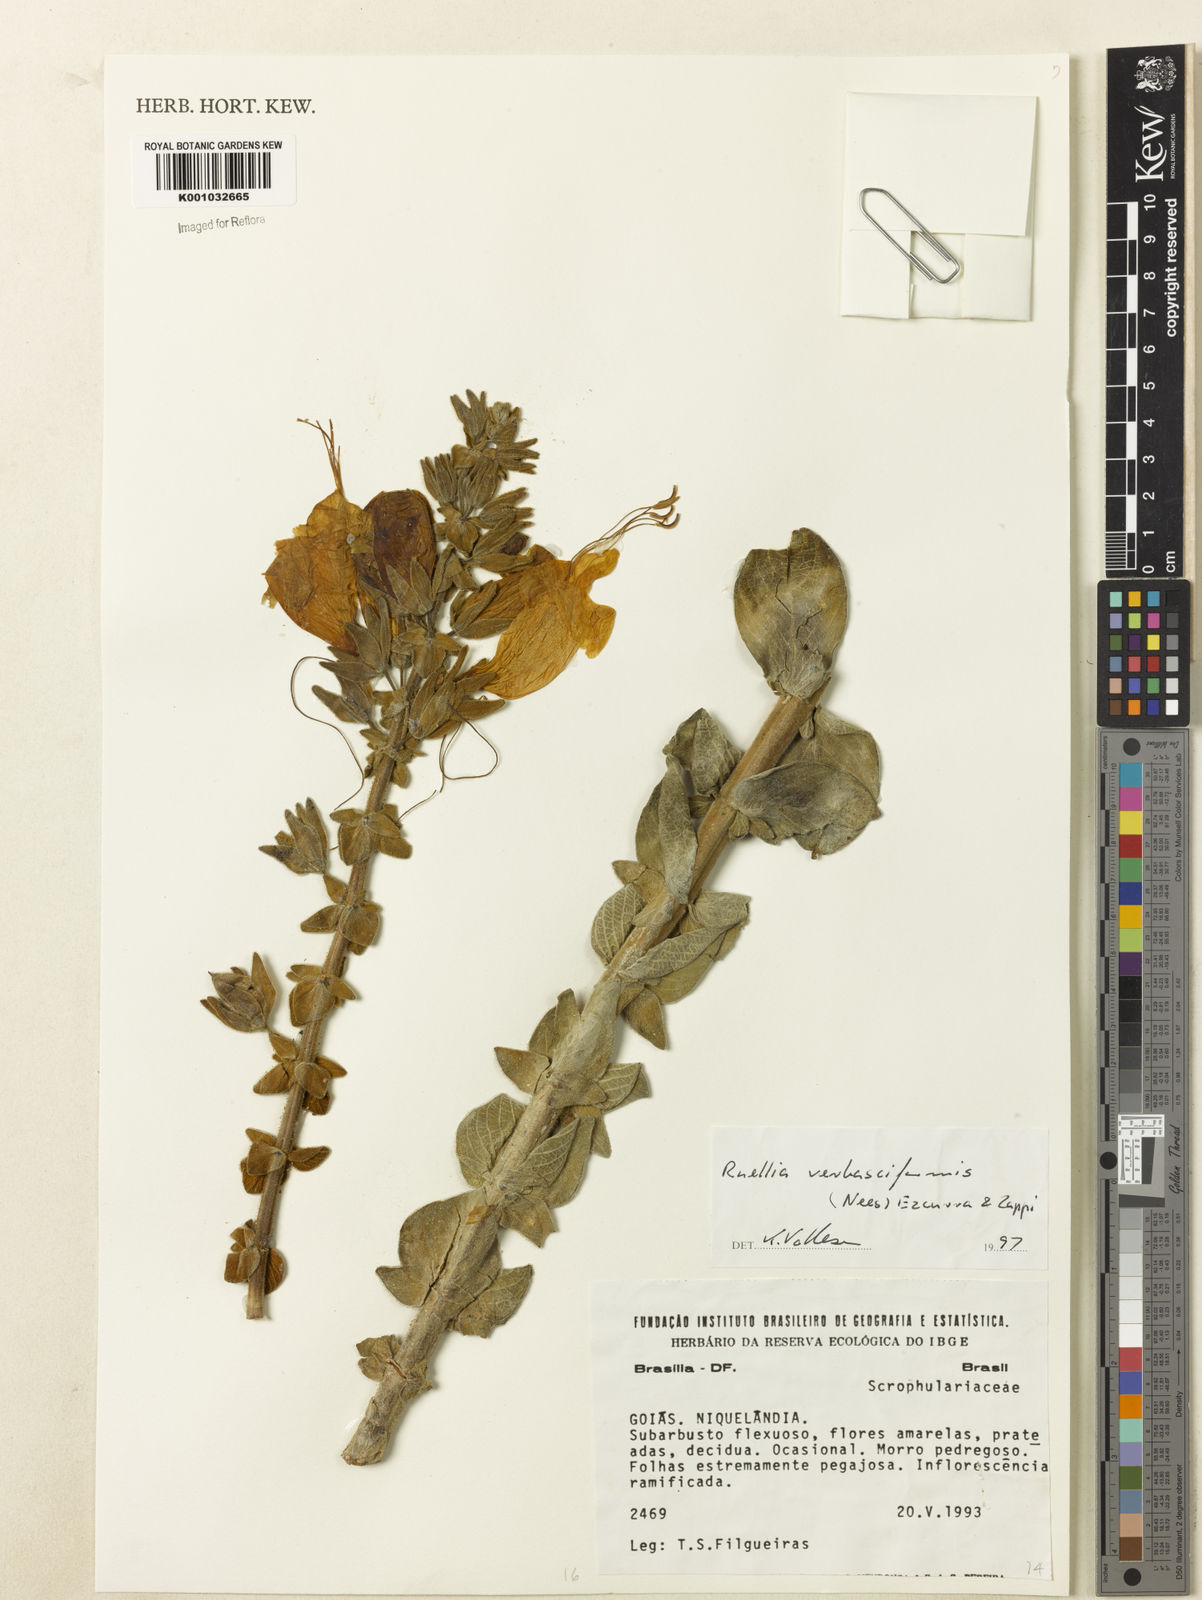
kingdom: Plantae
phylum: Tracheophyta
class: Magnoliopsida
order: Lamiales
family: Acanthaceae
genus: Ruellia
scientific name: Ruellia verbasciformis
